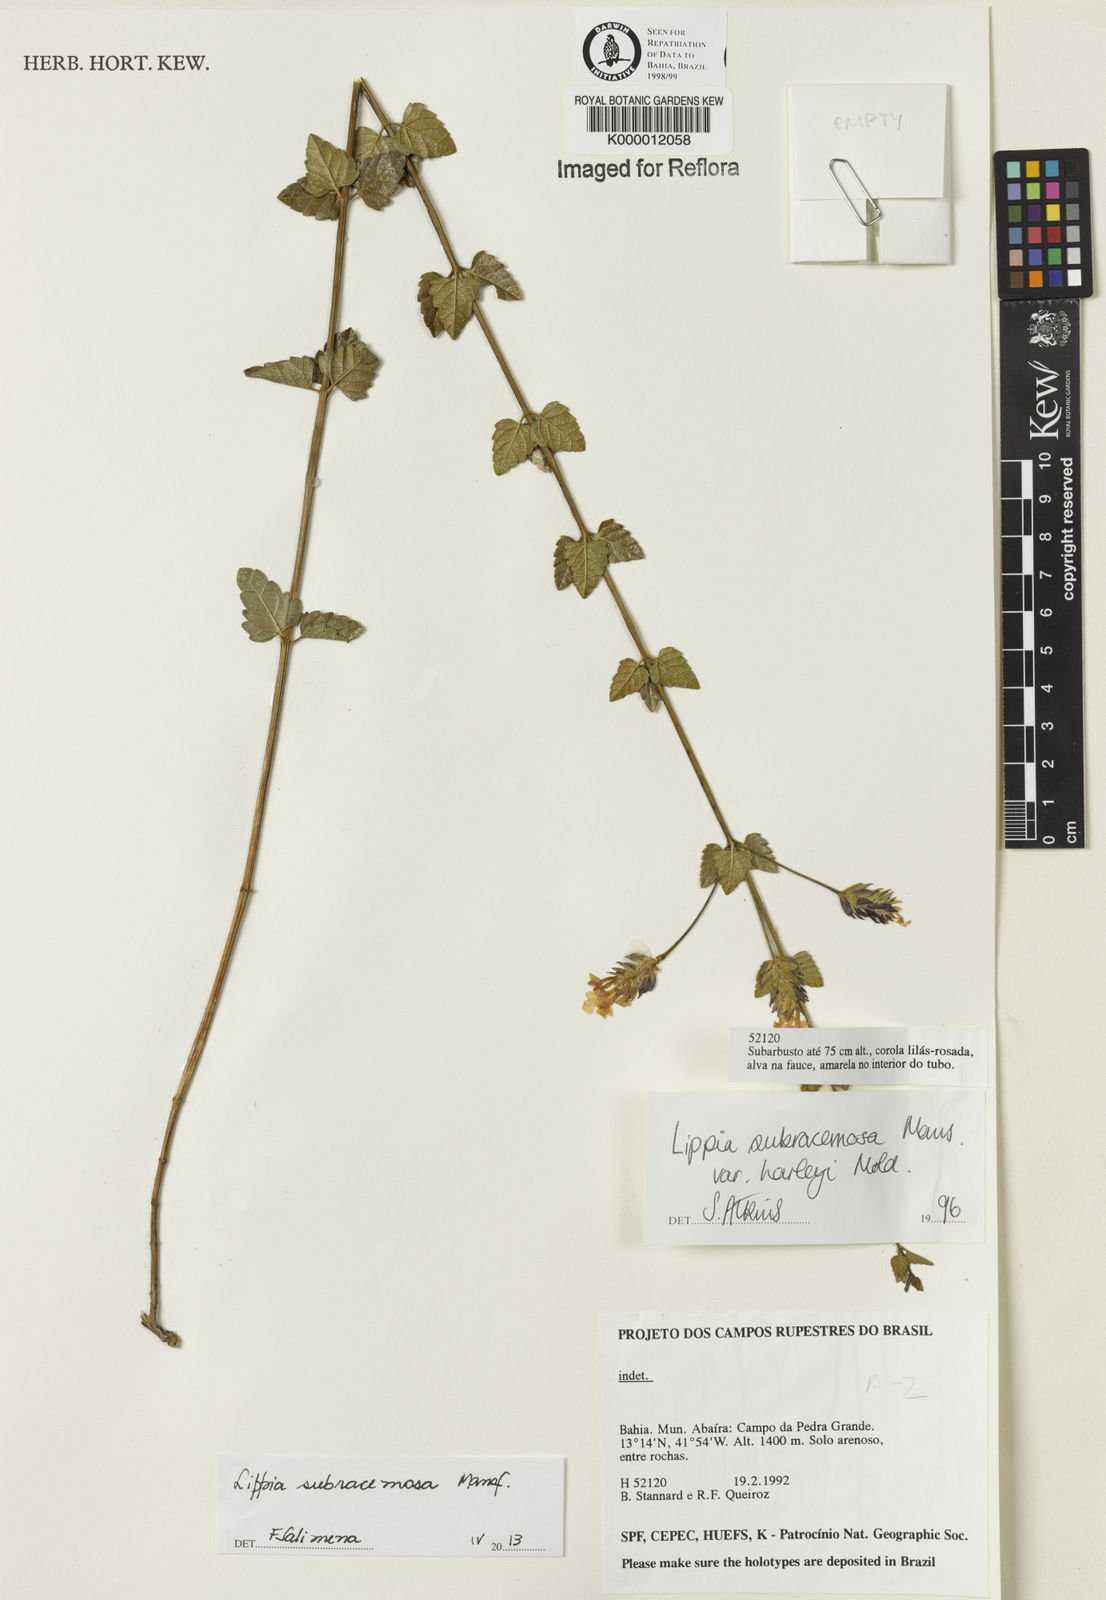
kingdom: Plantae
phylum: Tracheophyta
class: Magnoliopsida
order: Lamiales
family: Verbenaceae
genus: Lippia
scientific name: Lippia deltata
